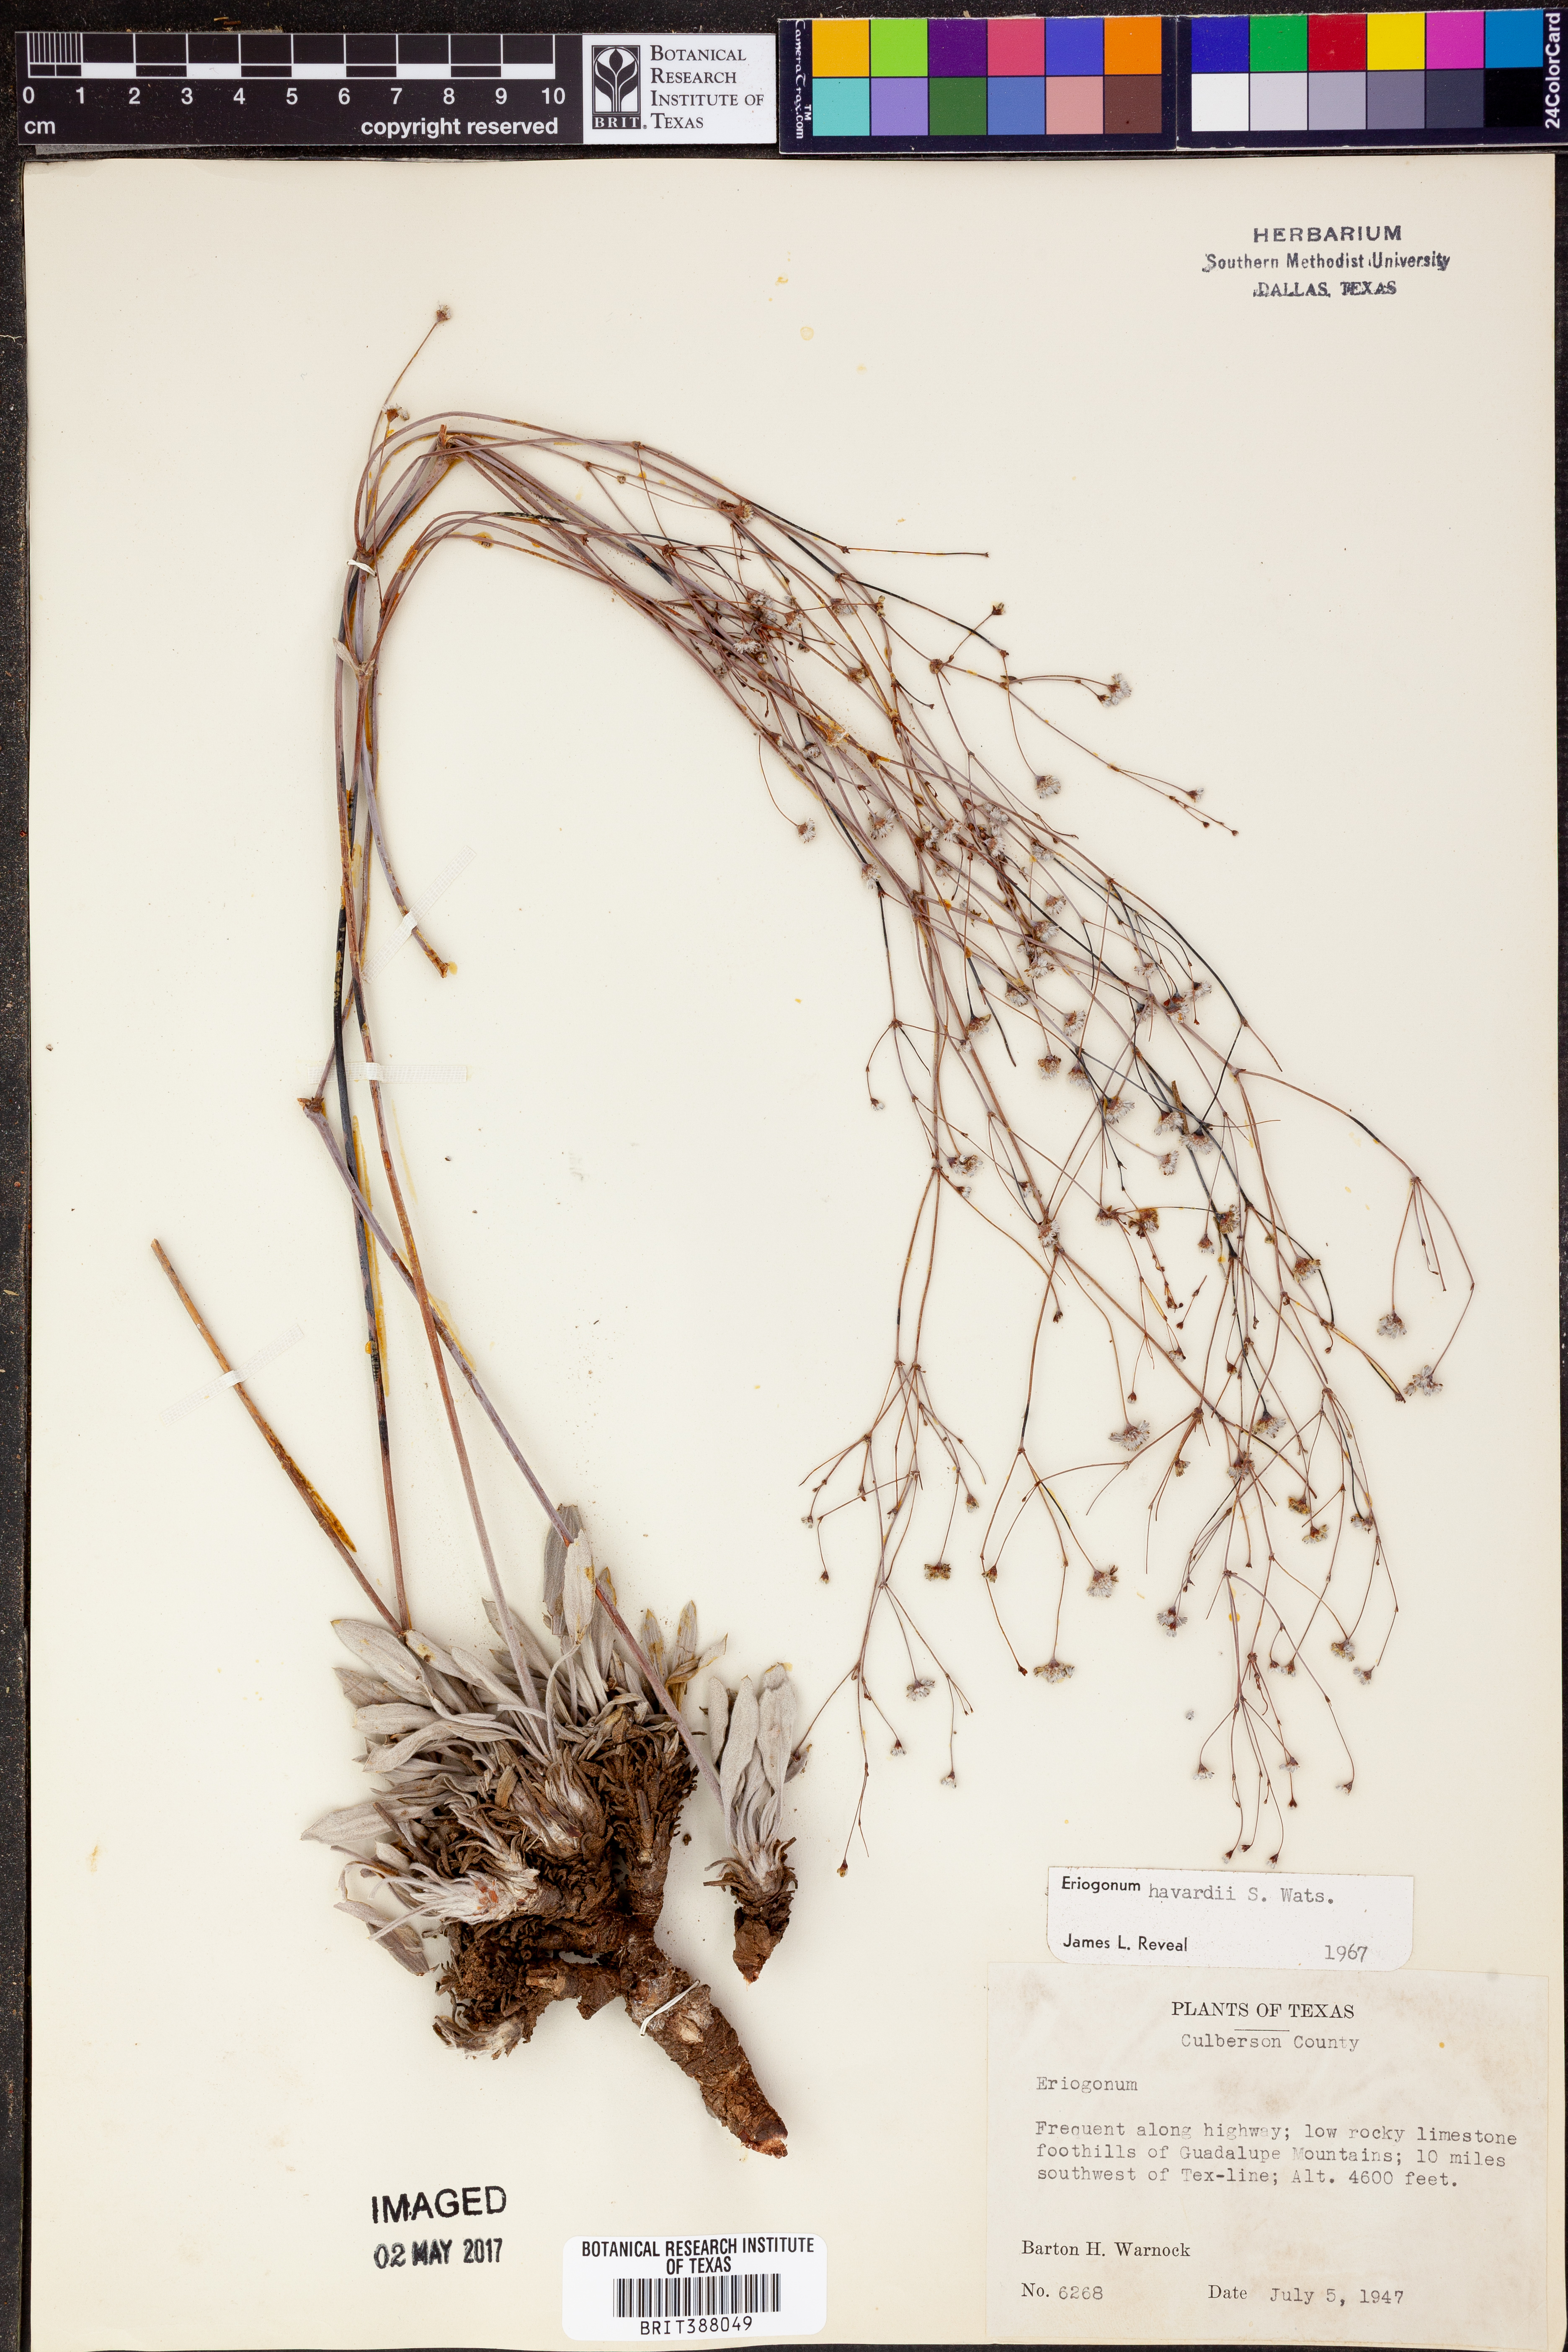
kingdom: Plantae
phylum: Tracheophyta
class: Magnoliopsida
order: Caryophyllales
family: Polygonaceae
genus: Eriogonum
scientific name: Eriogonum havardii
